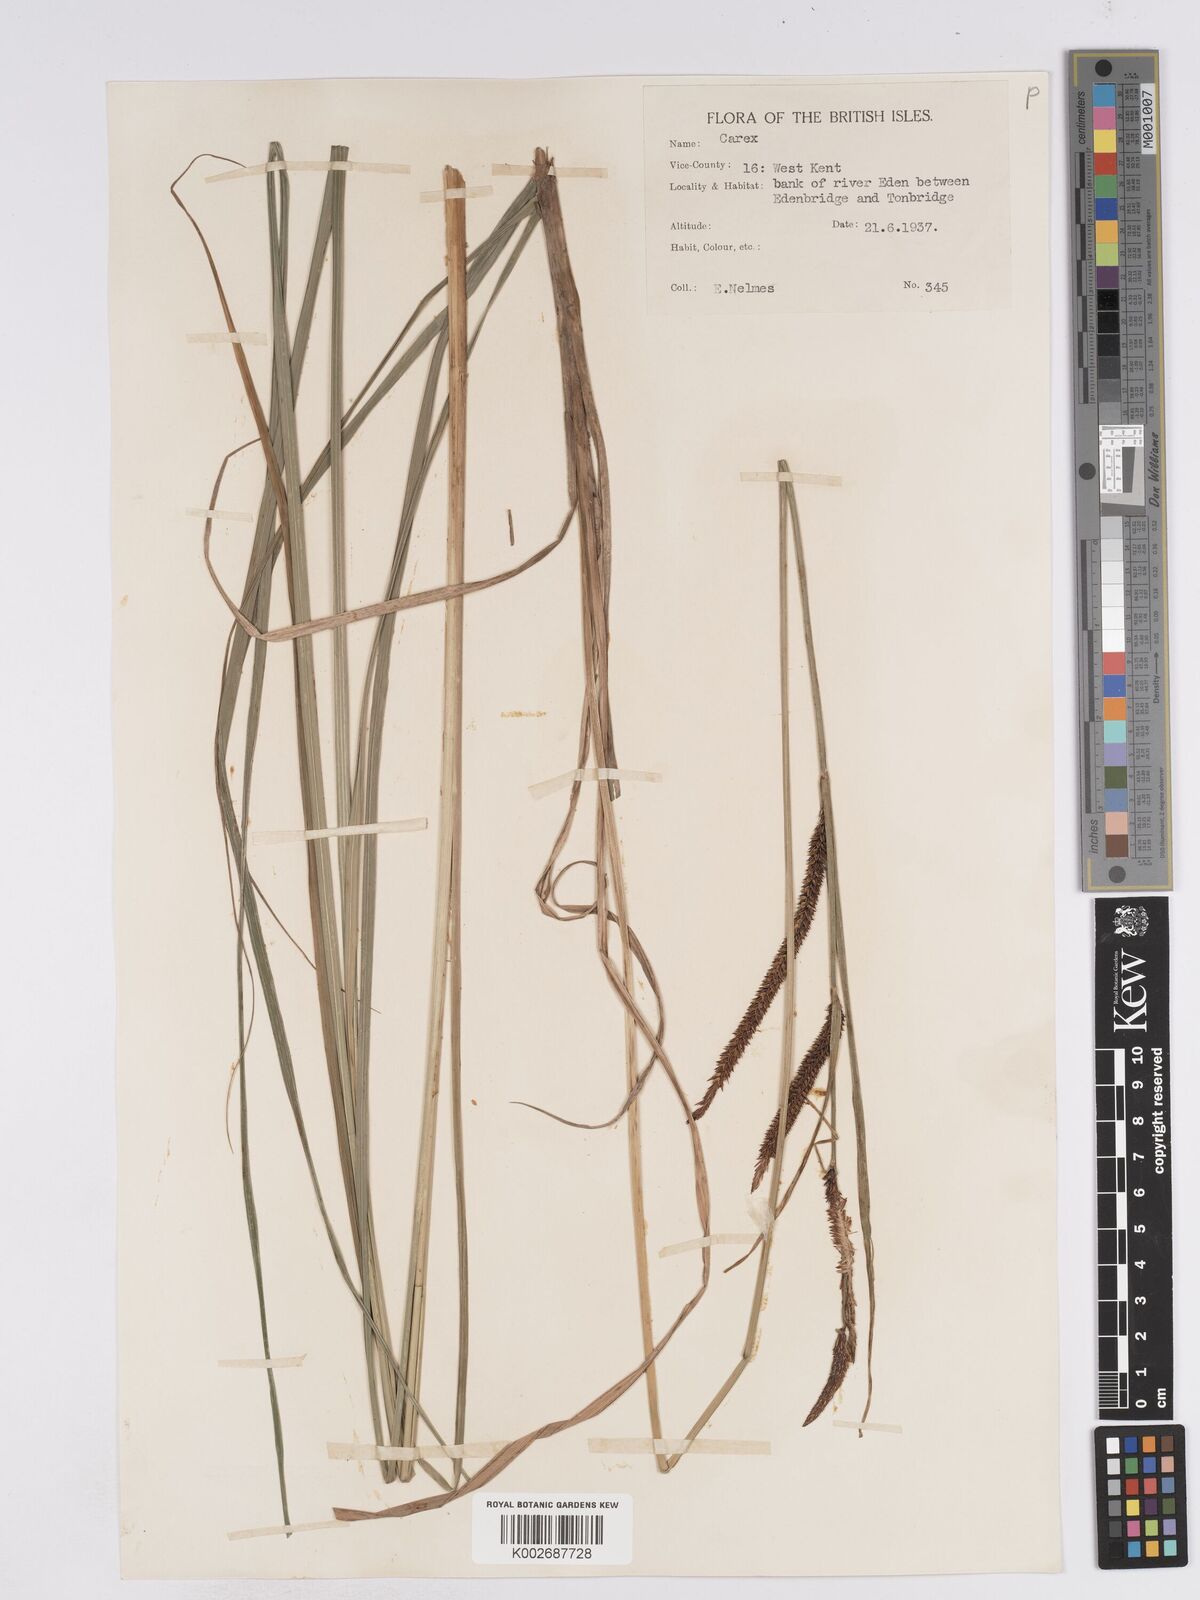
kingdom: Plantae
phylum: Tracheophyta
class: Liliopsida
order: Poales
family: Cyperaceae
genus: Carex
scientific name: Carex acuta
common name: Slender tufted-sedge
